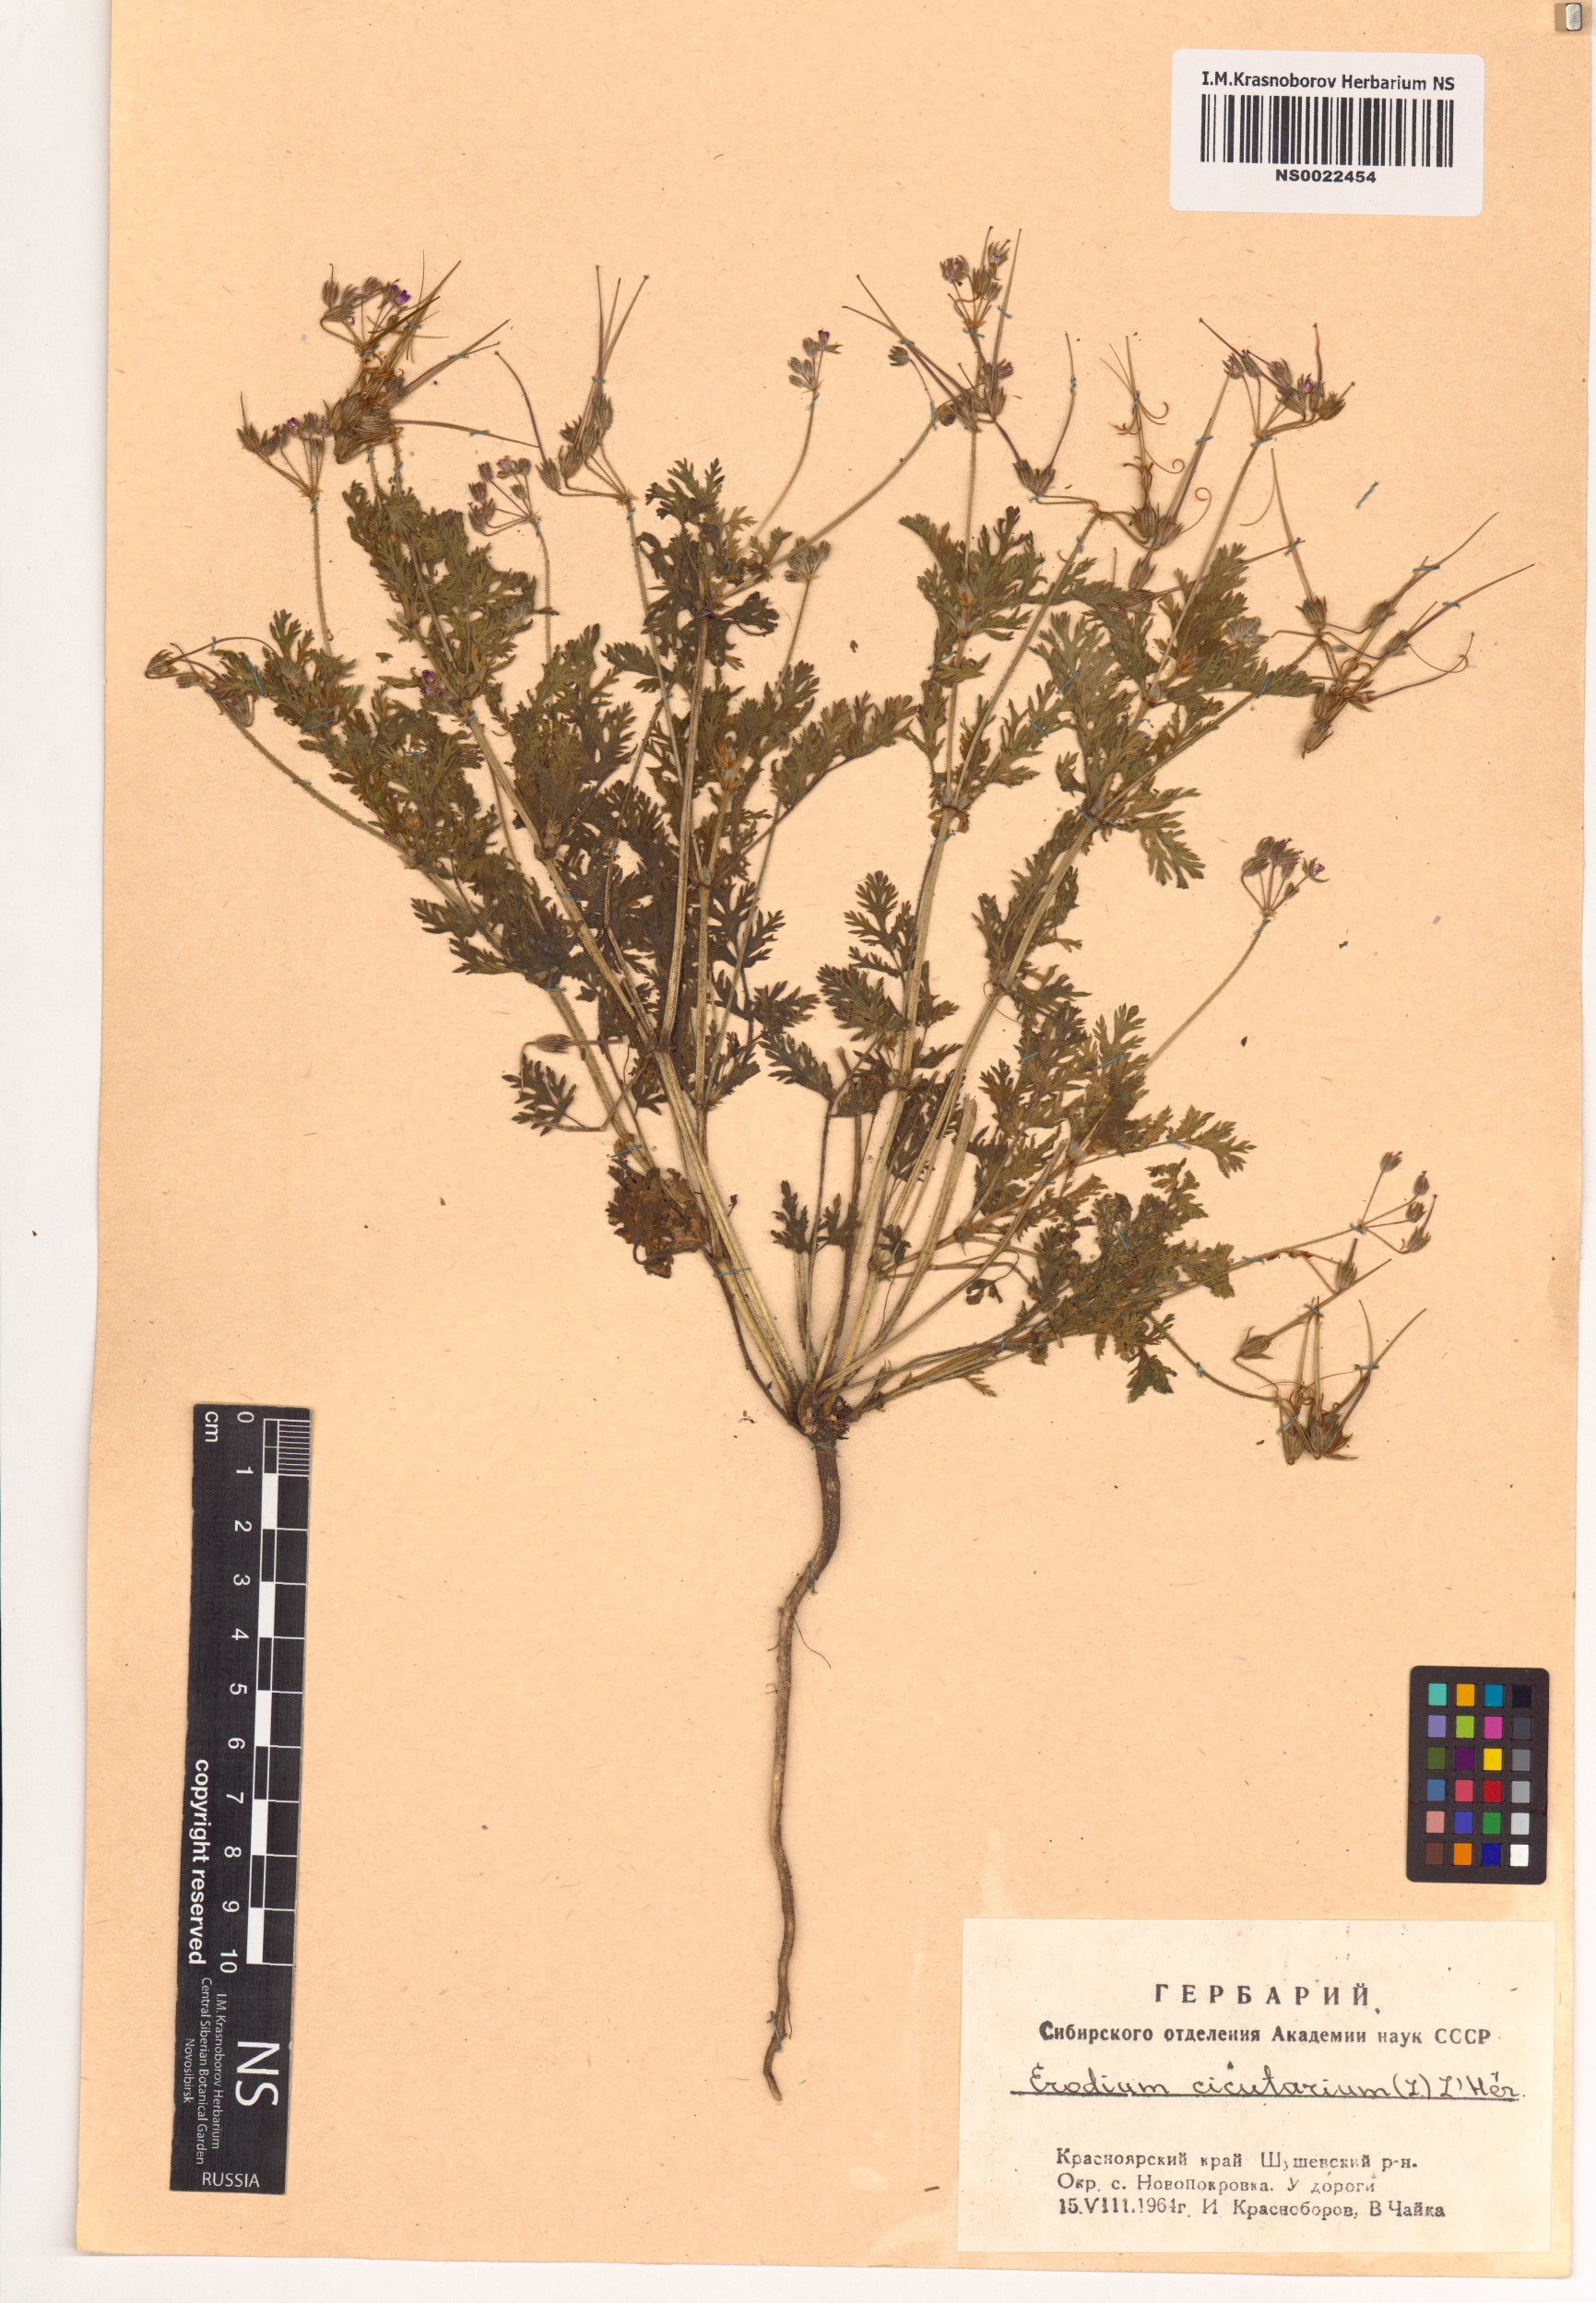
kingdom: Plantae
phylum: Tracheophyta
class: Magnoliopsida
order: Geraniales
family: Geraniaceae
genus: Erodium
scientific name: Erodium cicutarium
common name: Common stork's-bill
